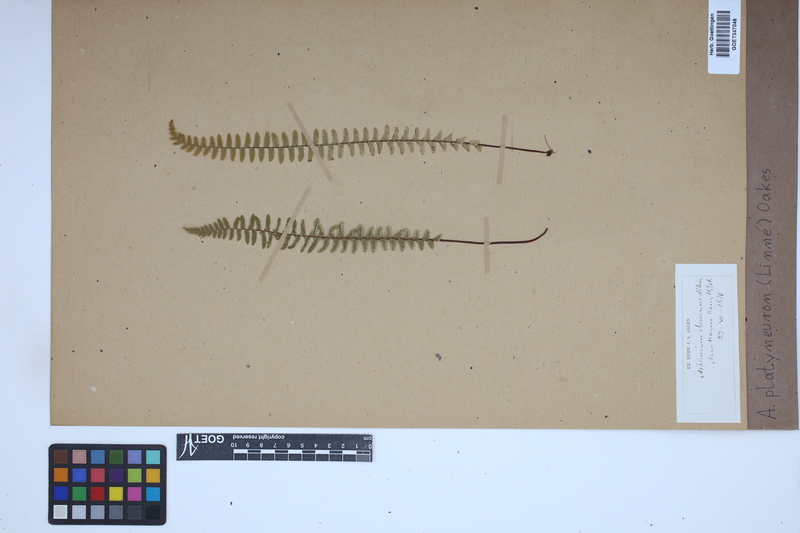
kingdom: Plantae
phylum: Tracheophyta
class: Polypodiopsida
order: Polypodiales
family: Aspleniaceae
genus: Asplenium
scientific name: Asplenium platyneuron
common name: Ebony spleenwort
